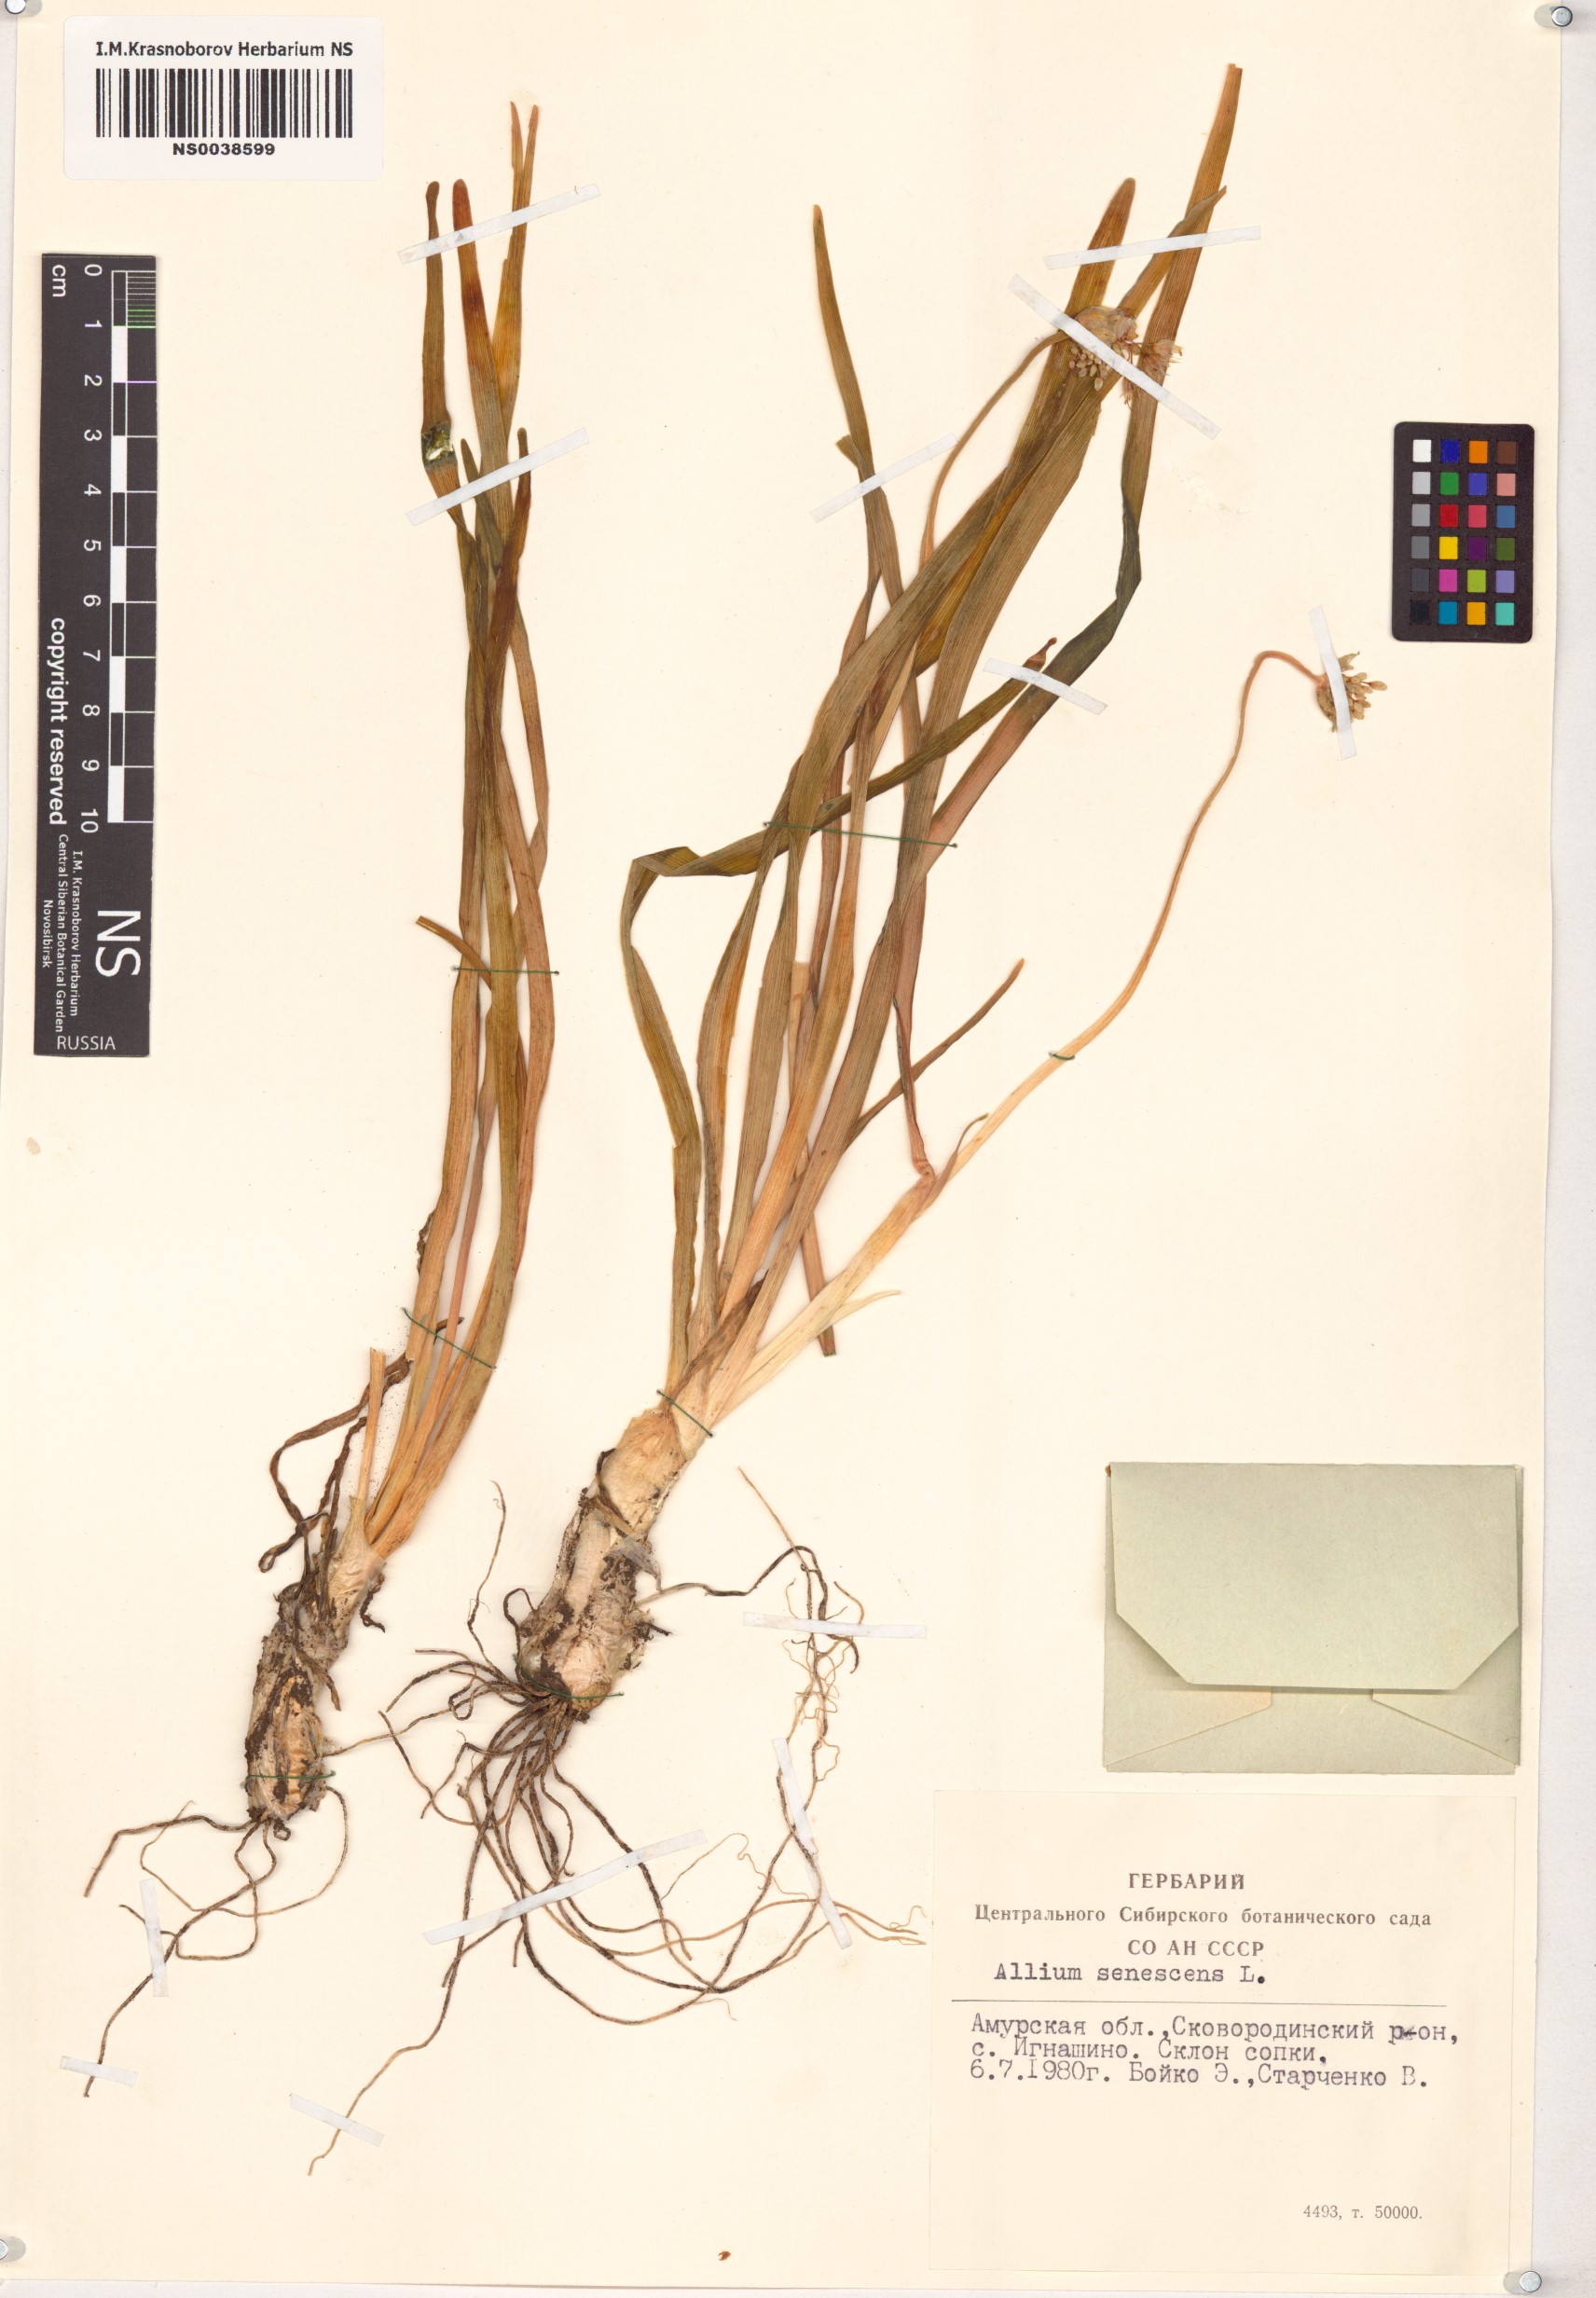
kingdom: Plantae
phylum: Tracheophyta
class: Liliopsida
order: Asparagales
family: Amaryllidaceae
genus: Allium
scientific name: Allium senescens
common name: German garlic
